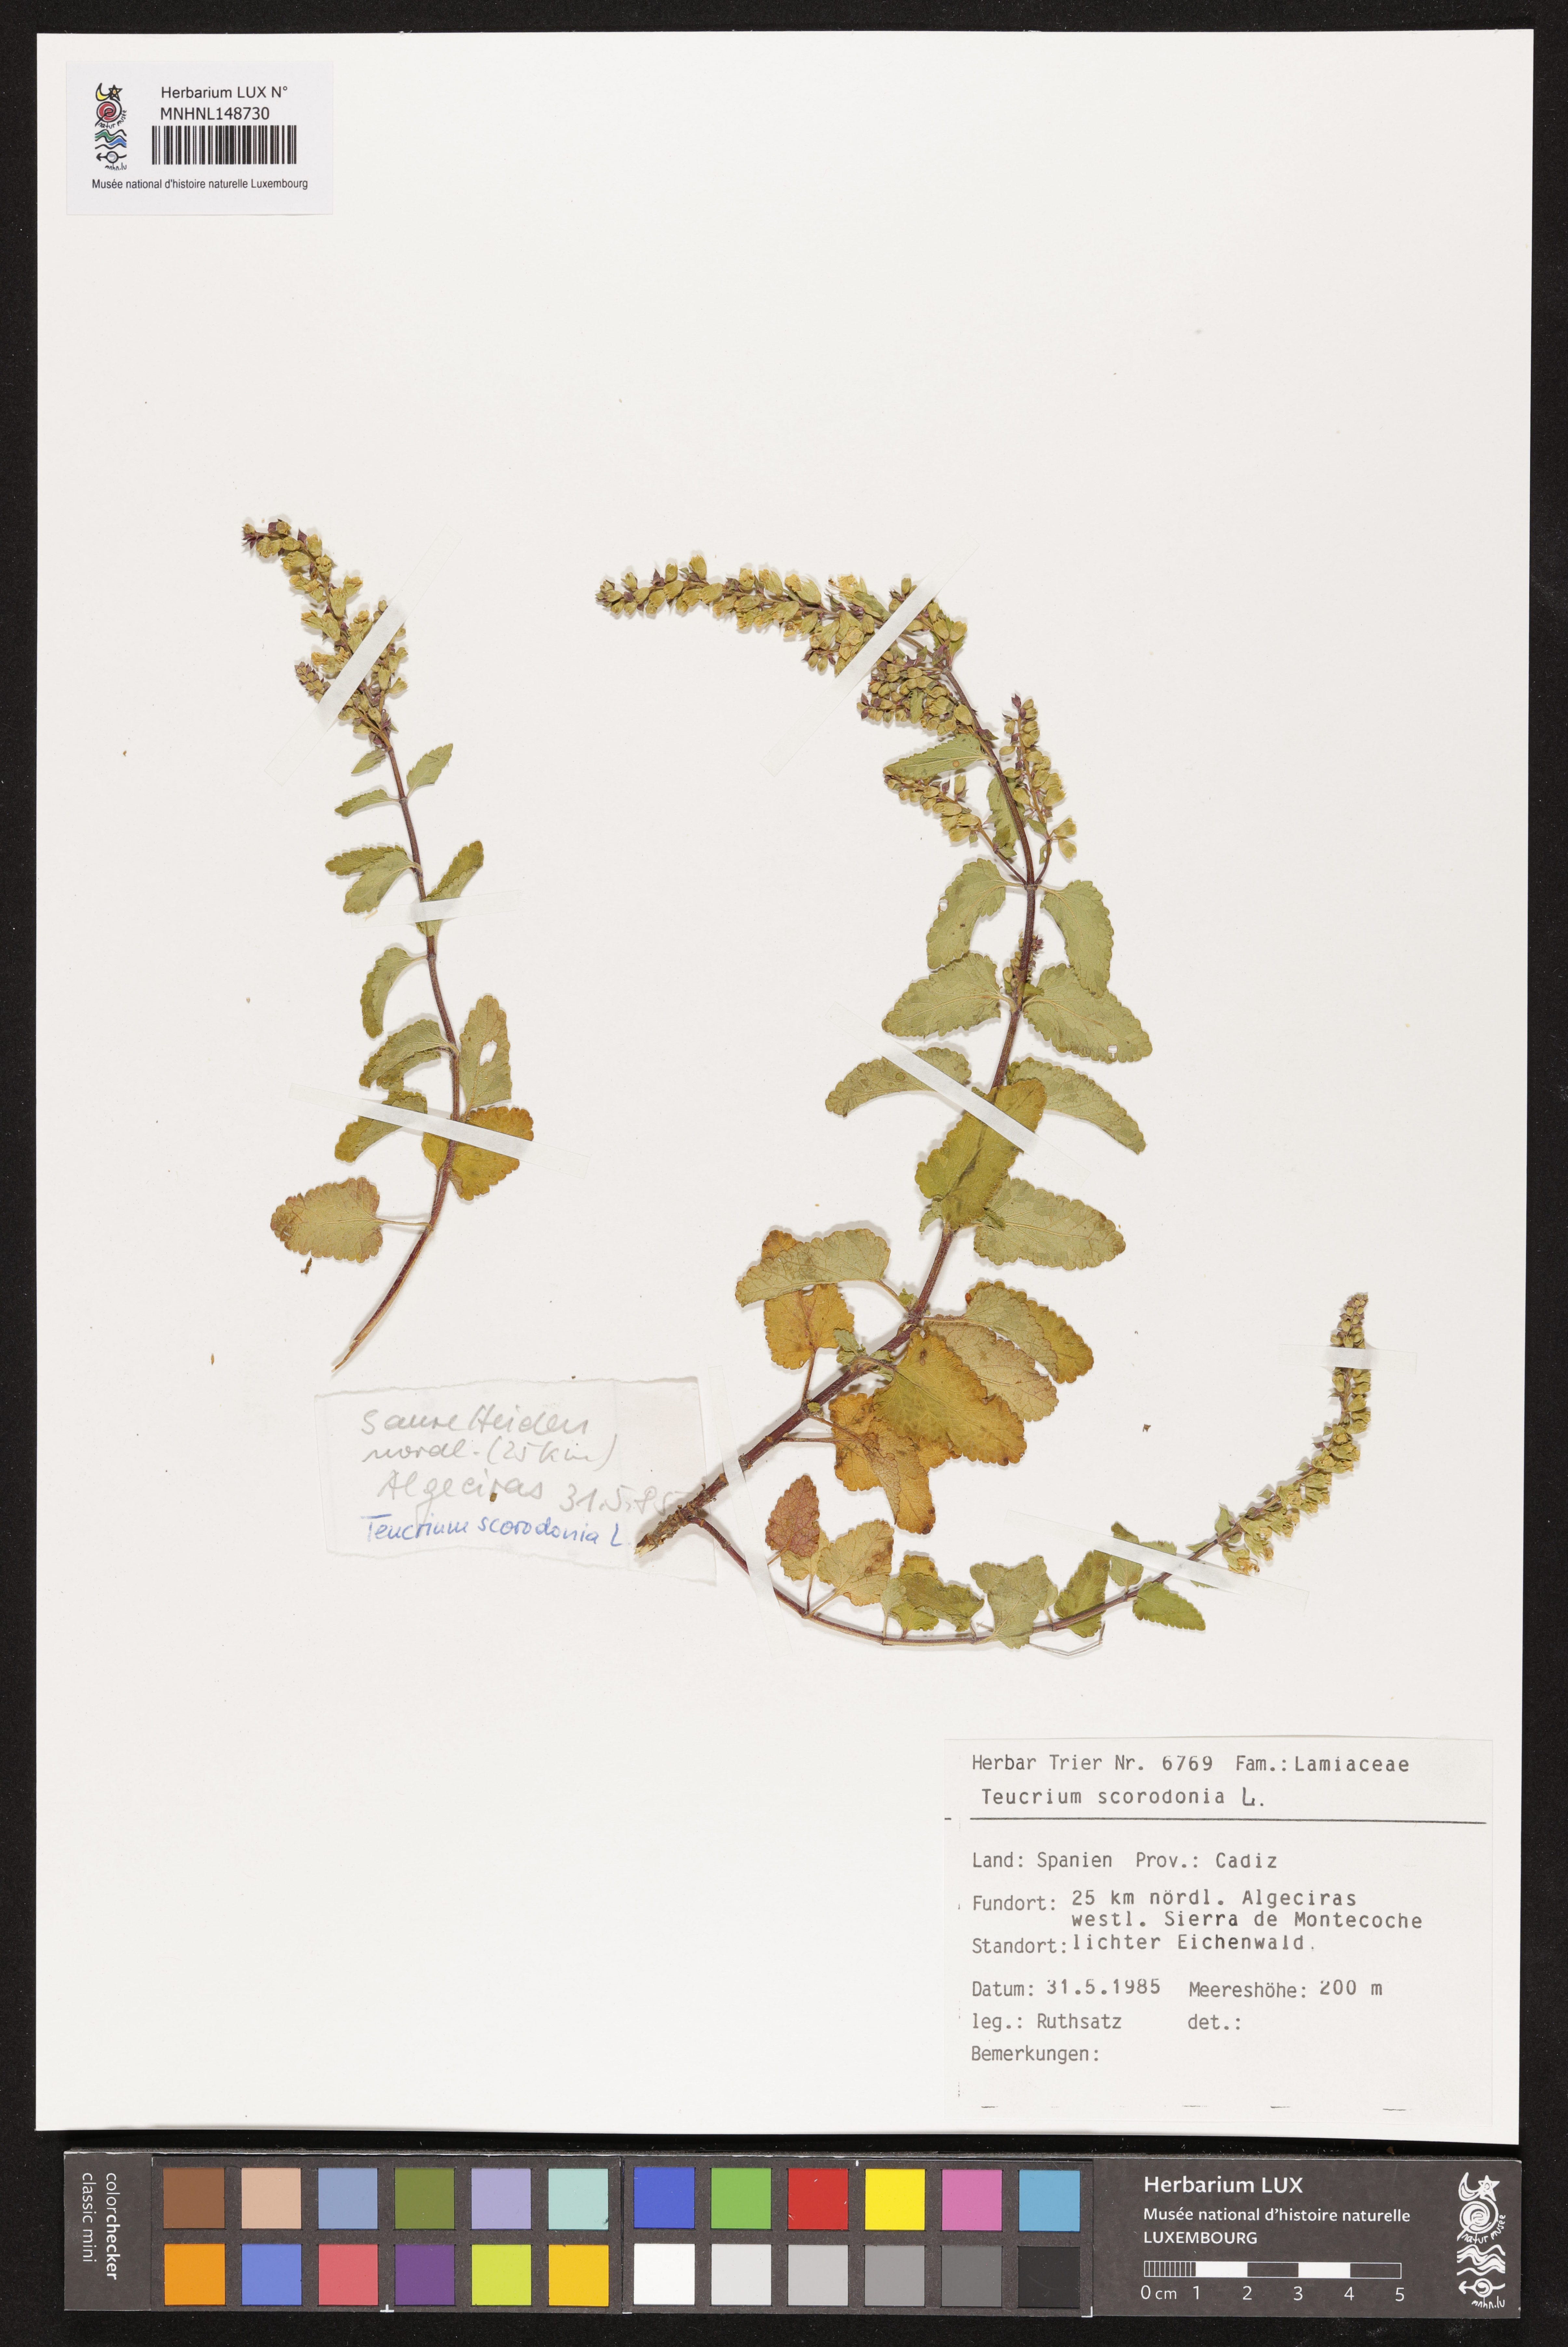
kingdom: Plantae
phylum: Tracheophyta
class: Magnoliopsida
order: Lamiales
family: Lamiaceae
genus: Teucrium
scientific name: Teucrium scorodonia
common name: Woodland germander
